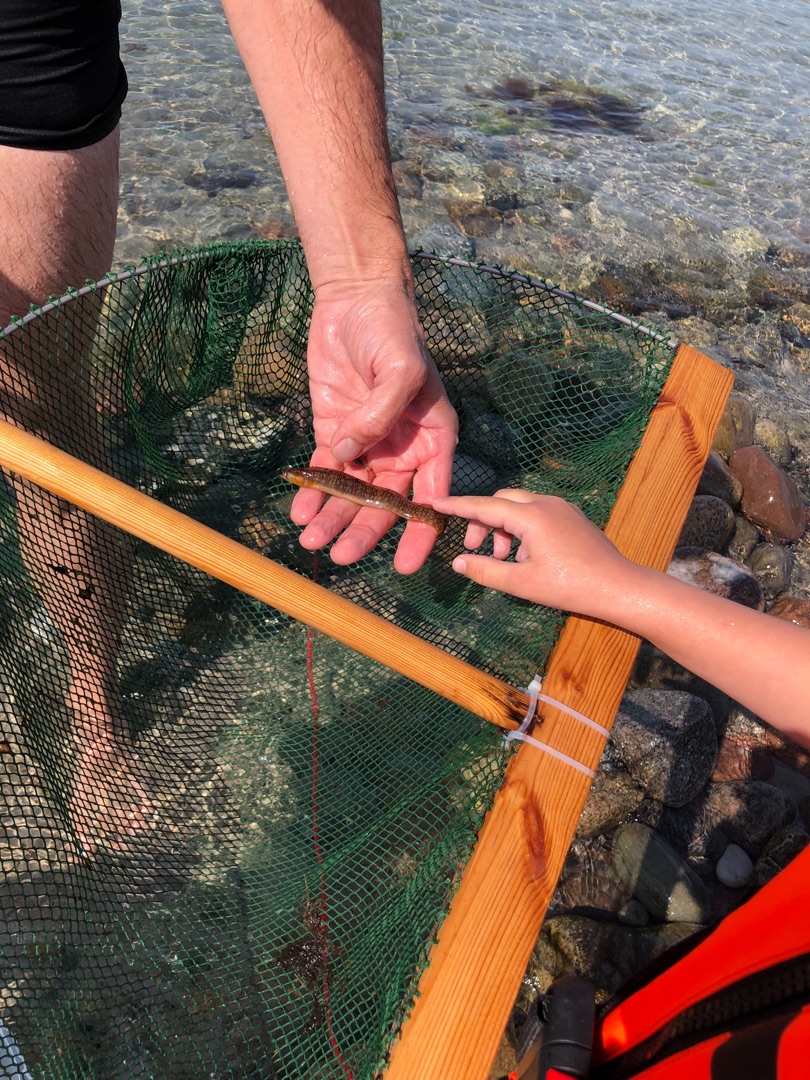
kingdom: Animalia
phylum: Chordata
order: Perciformes
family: Pholidae
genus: Pholis
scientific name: Pholis gunnellus
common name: Tangspræl
